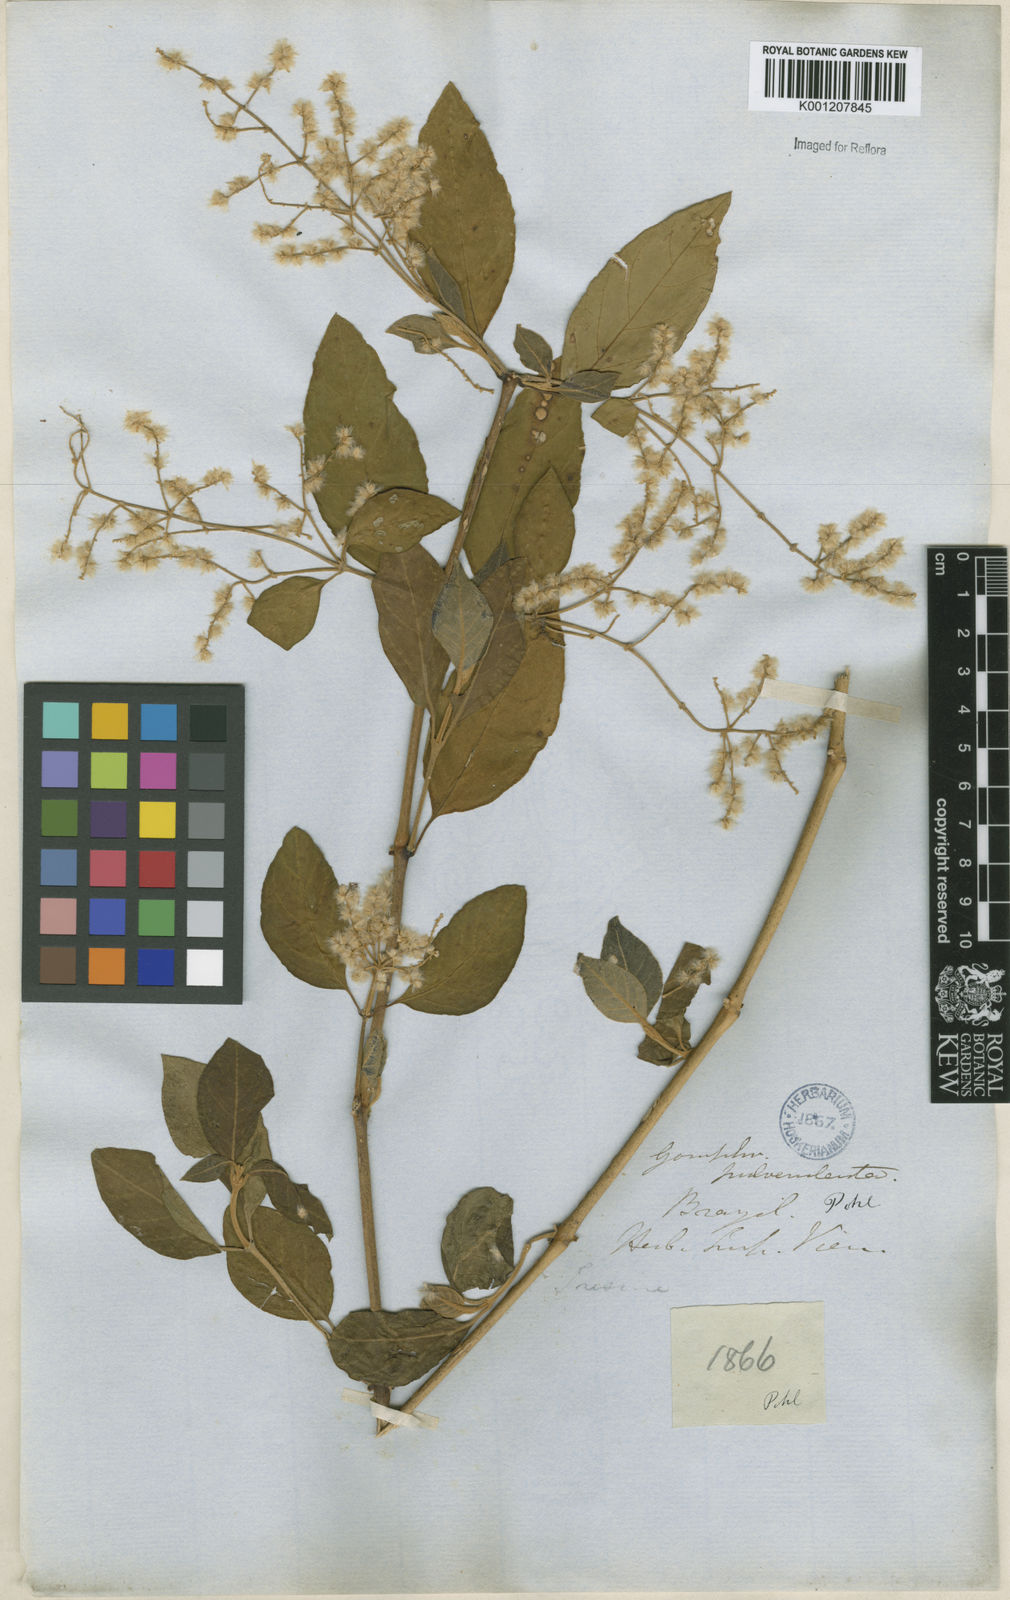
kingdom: Plantae
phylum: Tracheophyta
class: Magnoliopsida
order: Caryophyllales
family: Amaranthaceae
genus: Hebanthe
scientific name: Hebanthe pulverulenta
